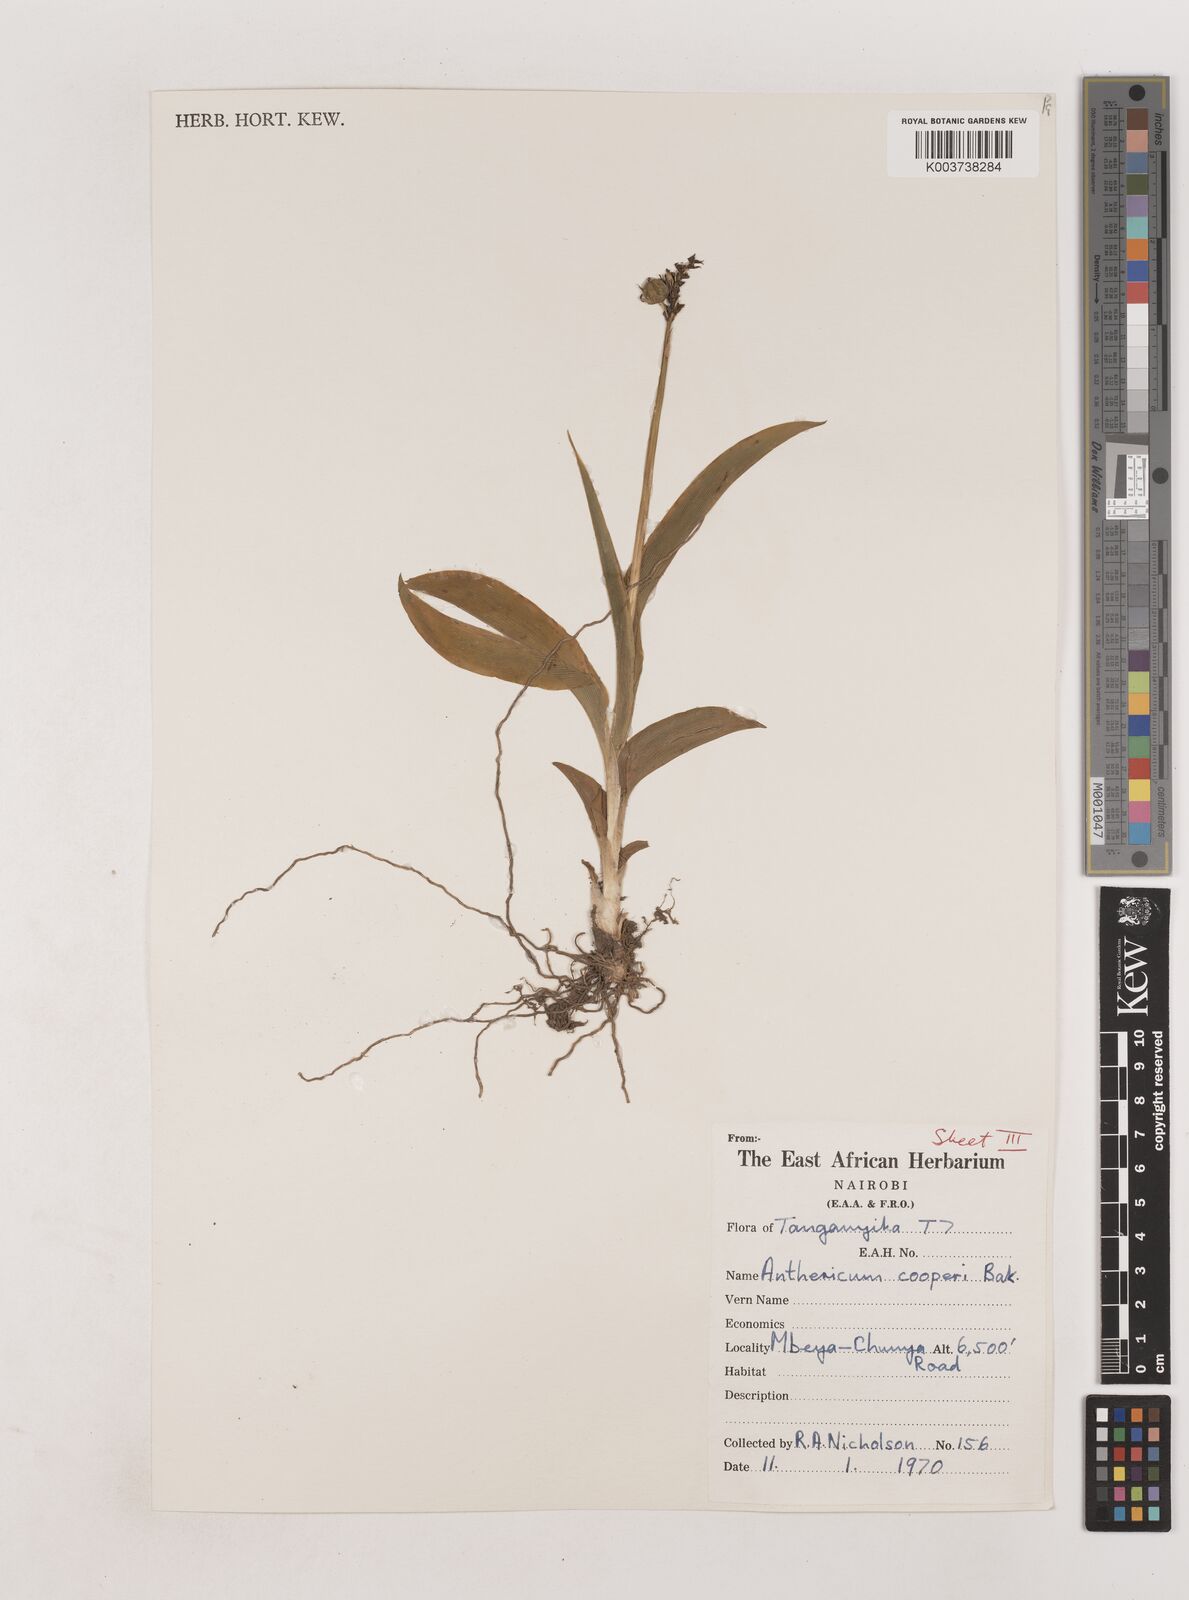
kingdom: Plantae
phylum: Tracheophyta
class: Liliopsida
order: Asparagales
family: Asparagaceae
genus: Chlorophytum
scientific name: Chlorophytum sphacelatum
